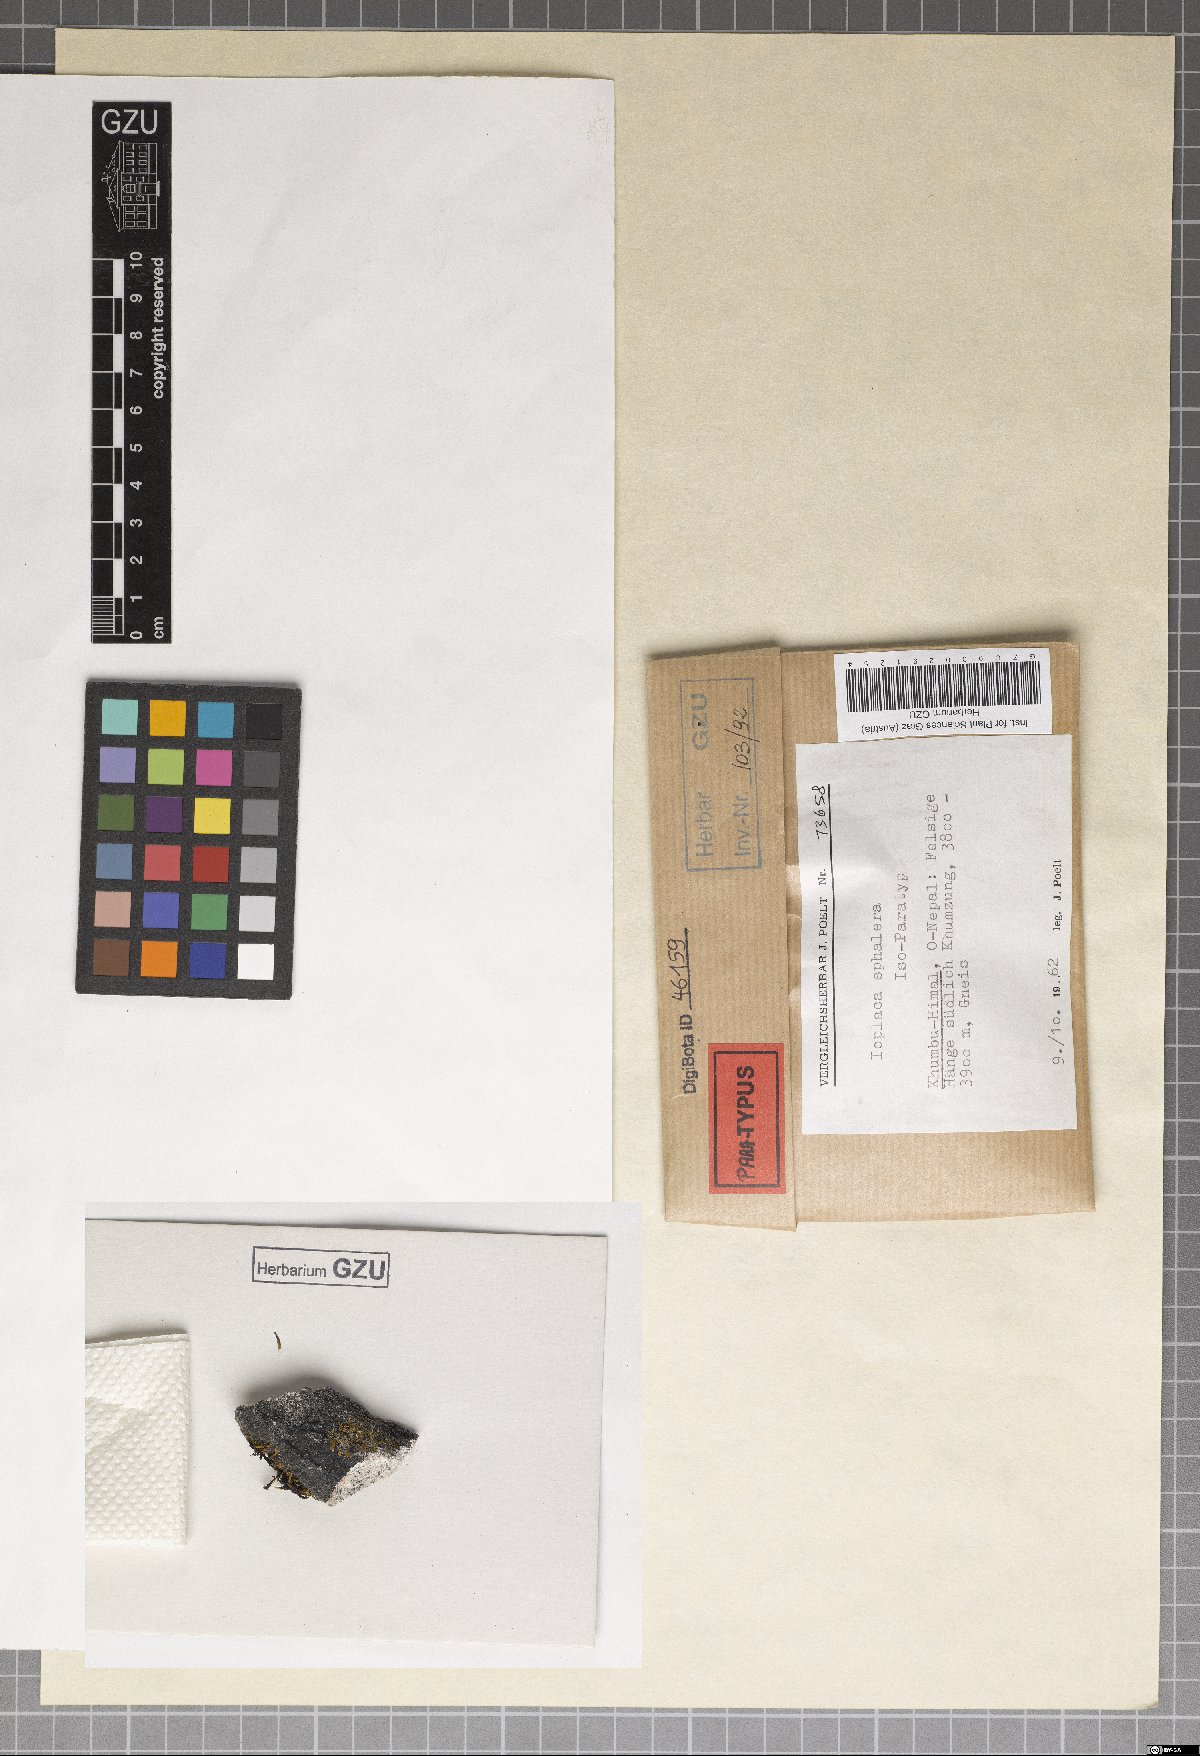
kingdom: Fungi
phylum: Ascomycota
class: Lecanoromycetes
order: Teloschistales
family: Teloschistaceae
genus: Ioplaca
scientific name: Ioplaca sphalera
